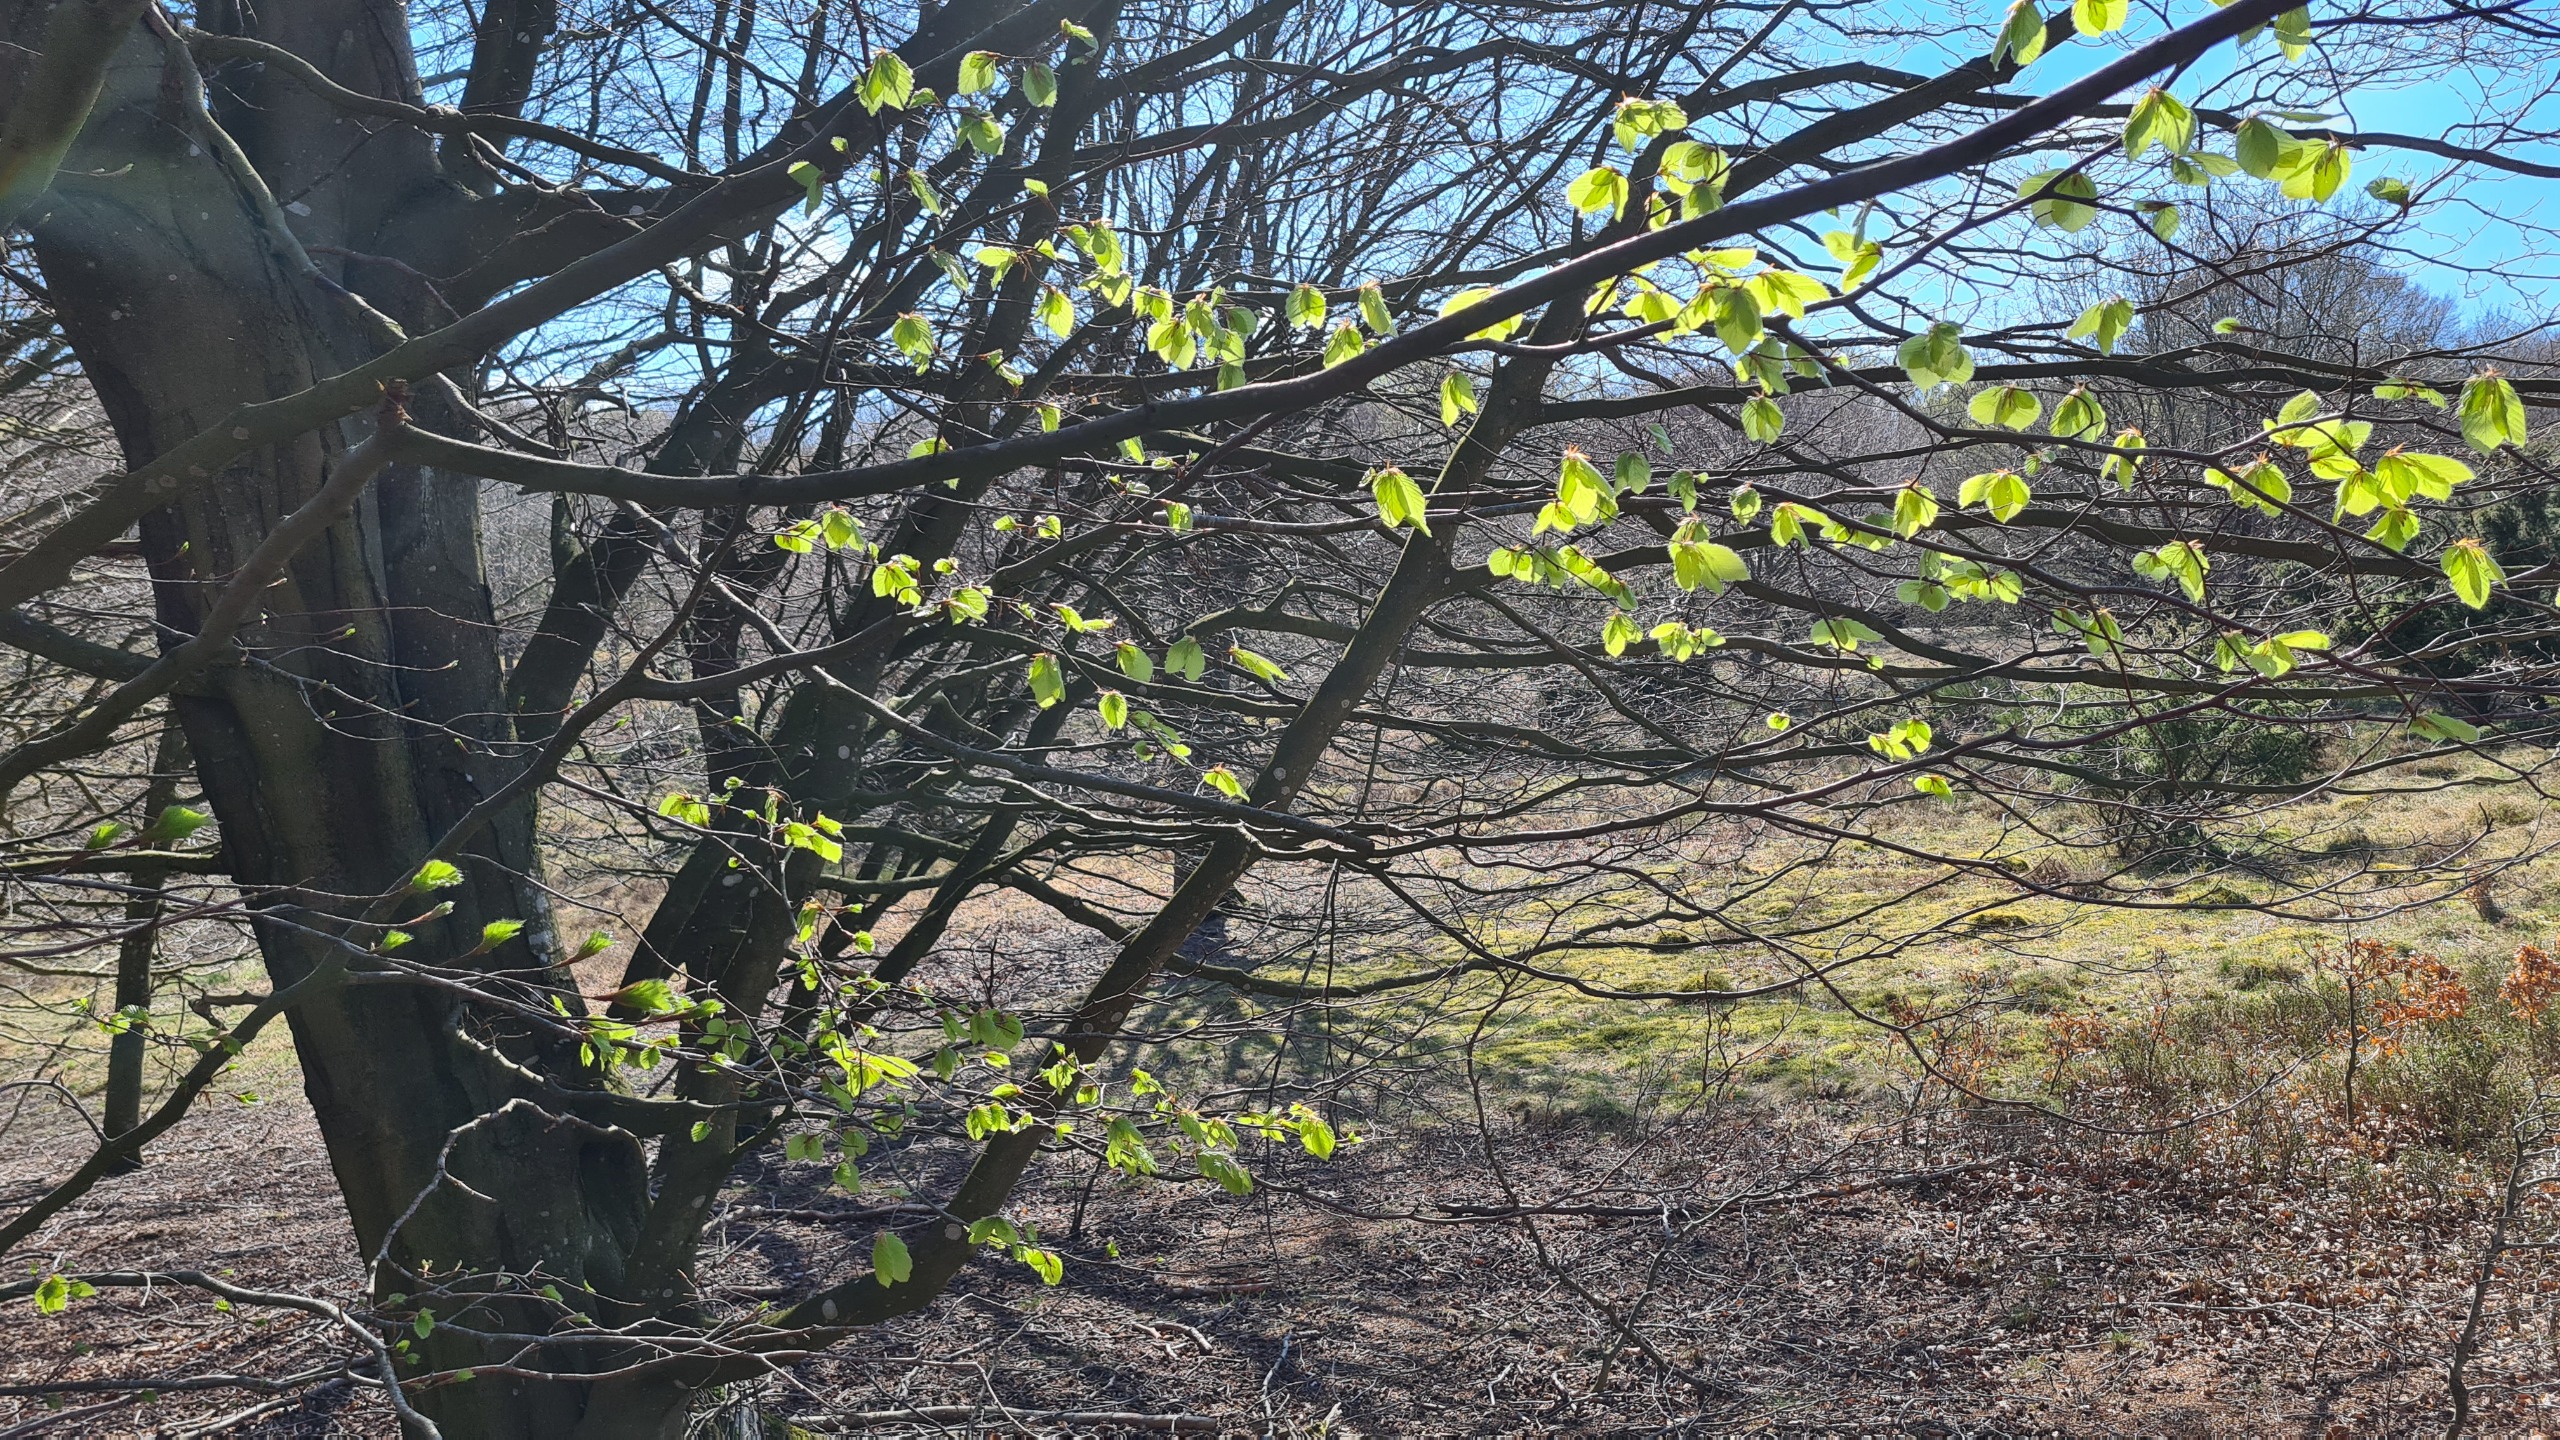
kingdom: Plantae
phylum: Tracheophyta
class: Magnoliopsida
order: Fagales
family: Fagaceae
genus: Fagus
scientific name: Fagus sylvatica
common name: Bøg
